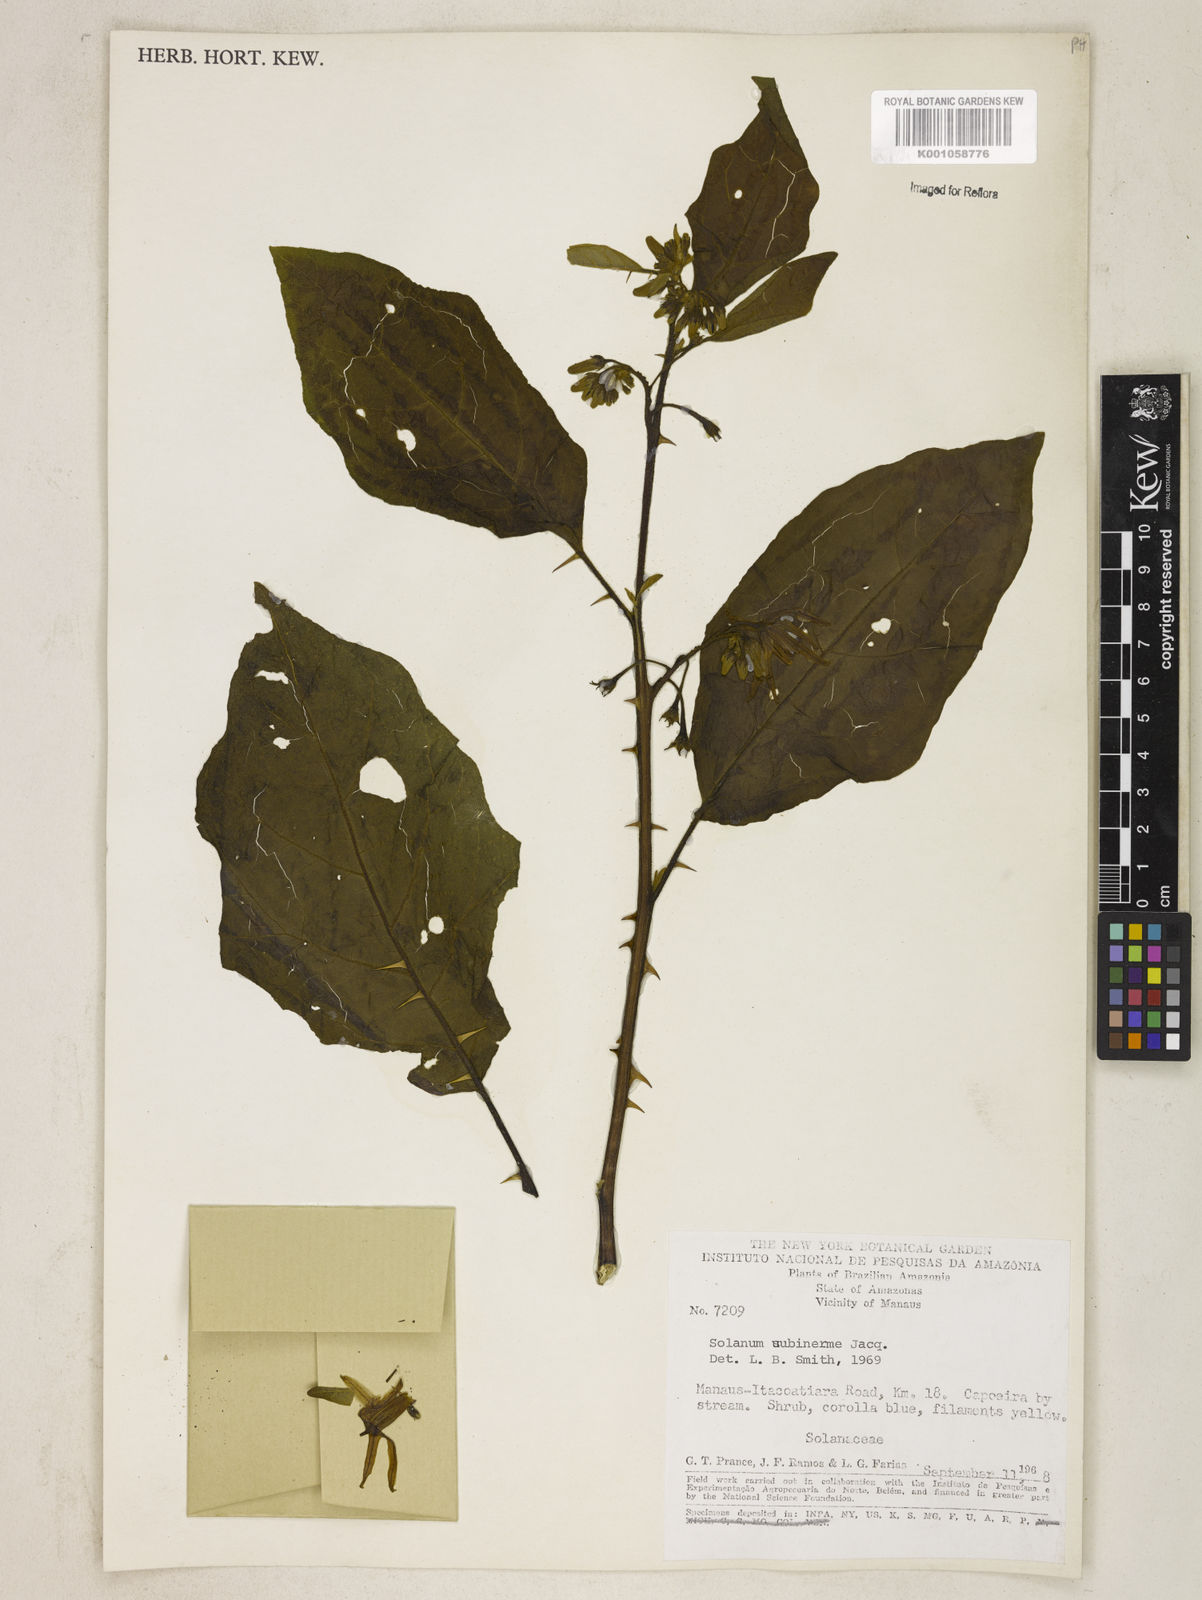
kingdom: Plantae
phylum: Tracheophyta
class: Magnoliopsida
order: Solanales
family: Solanaceae
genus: Solanum
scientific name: Solanum subinerme
